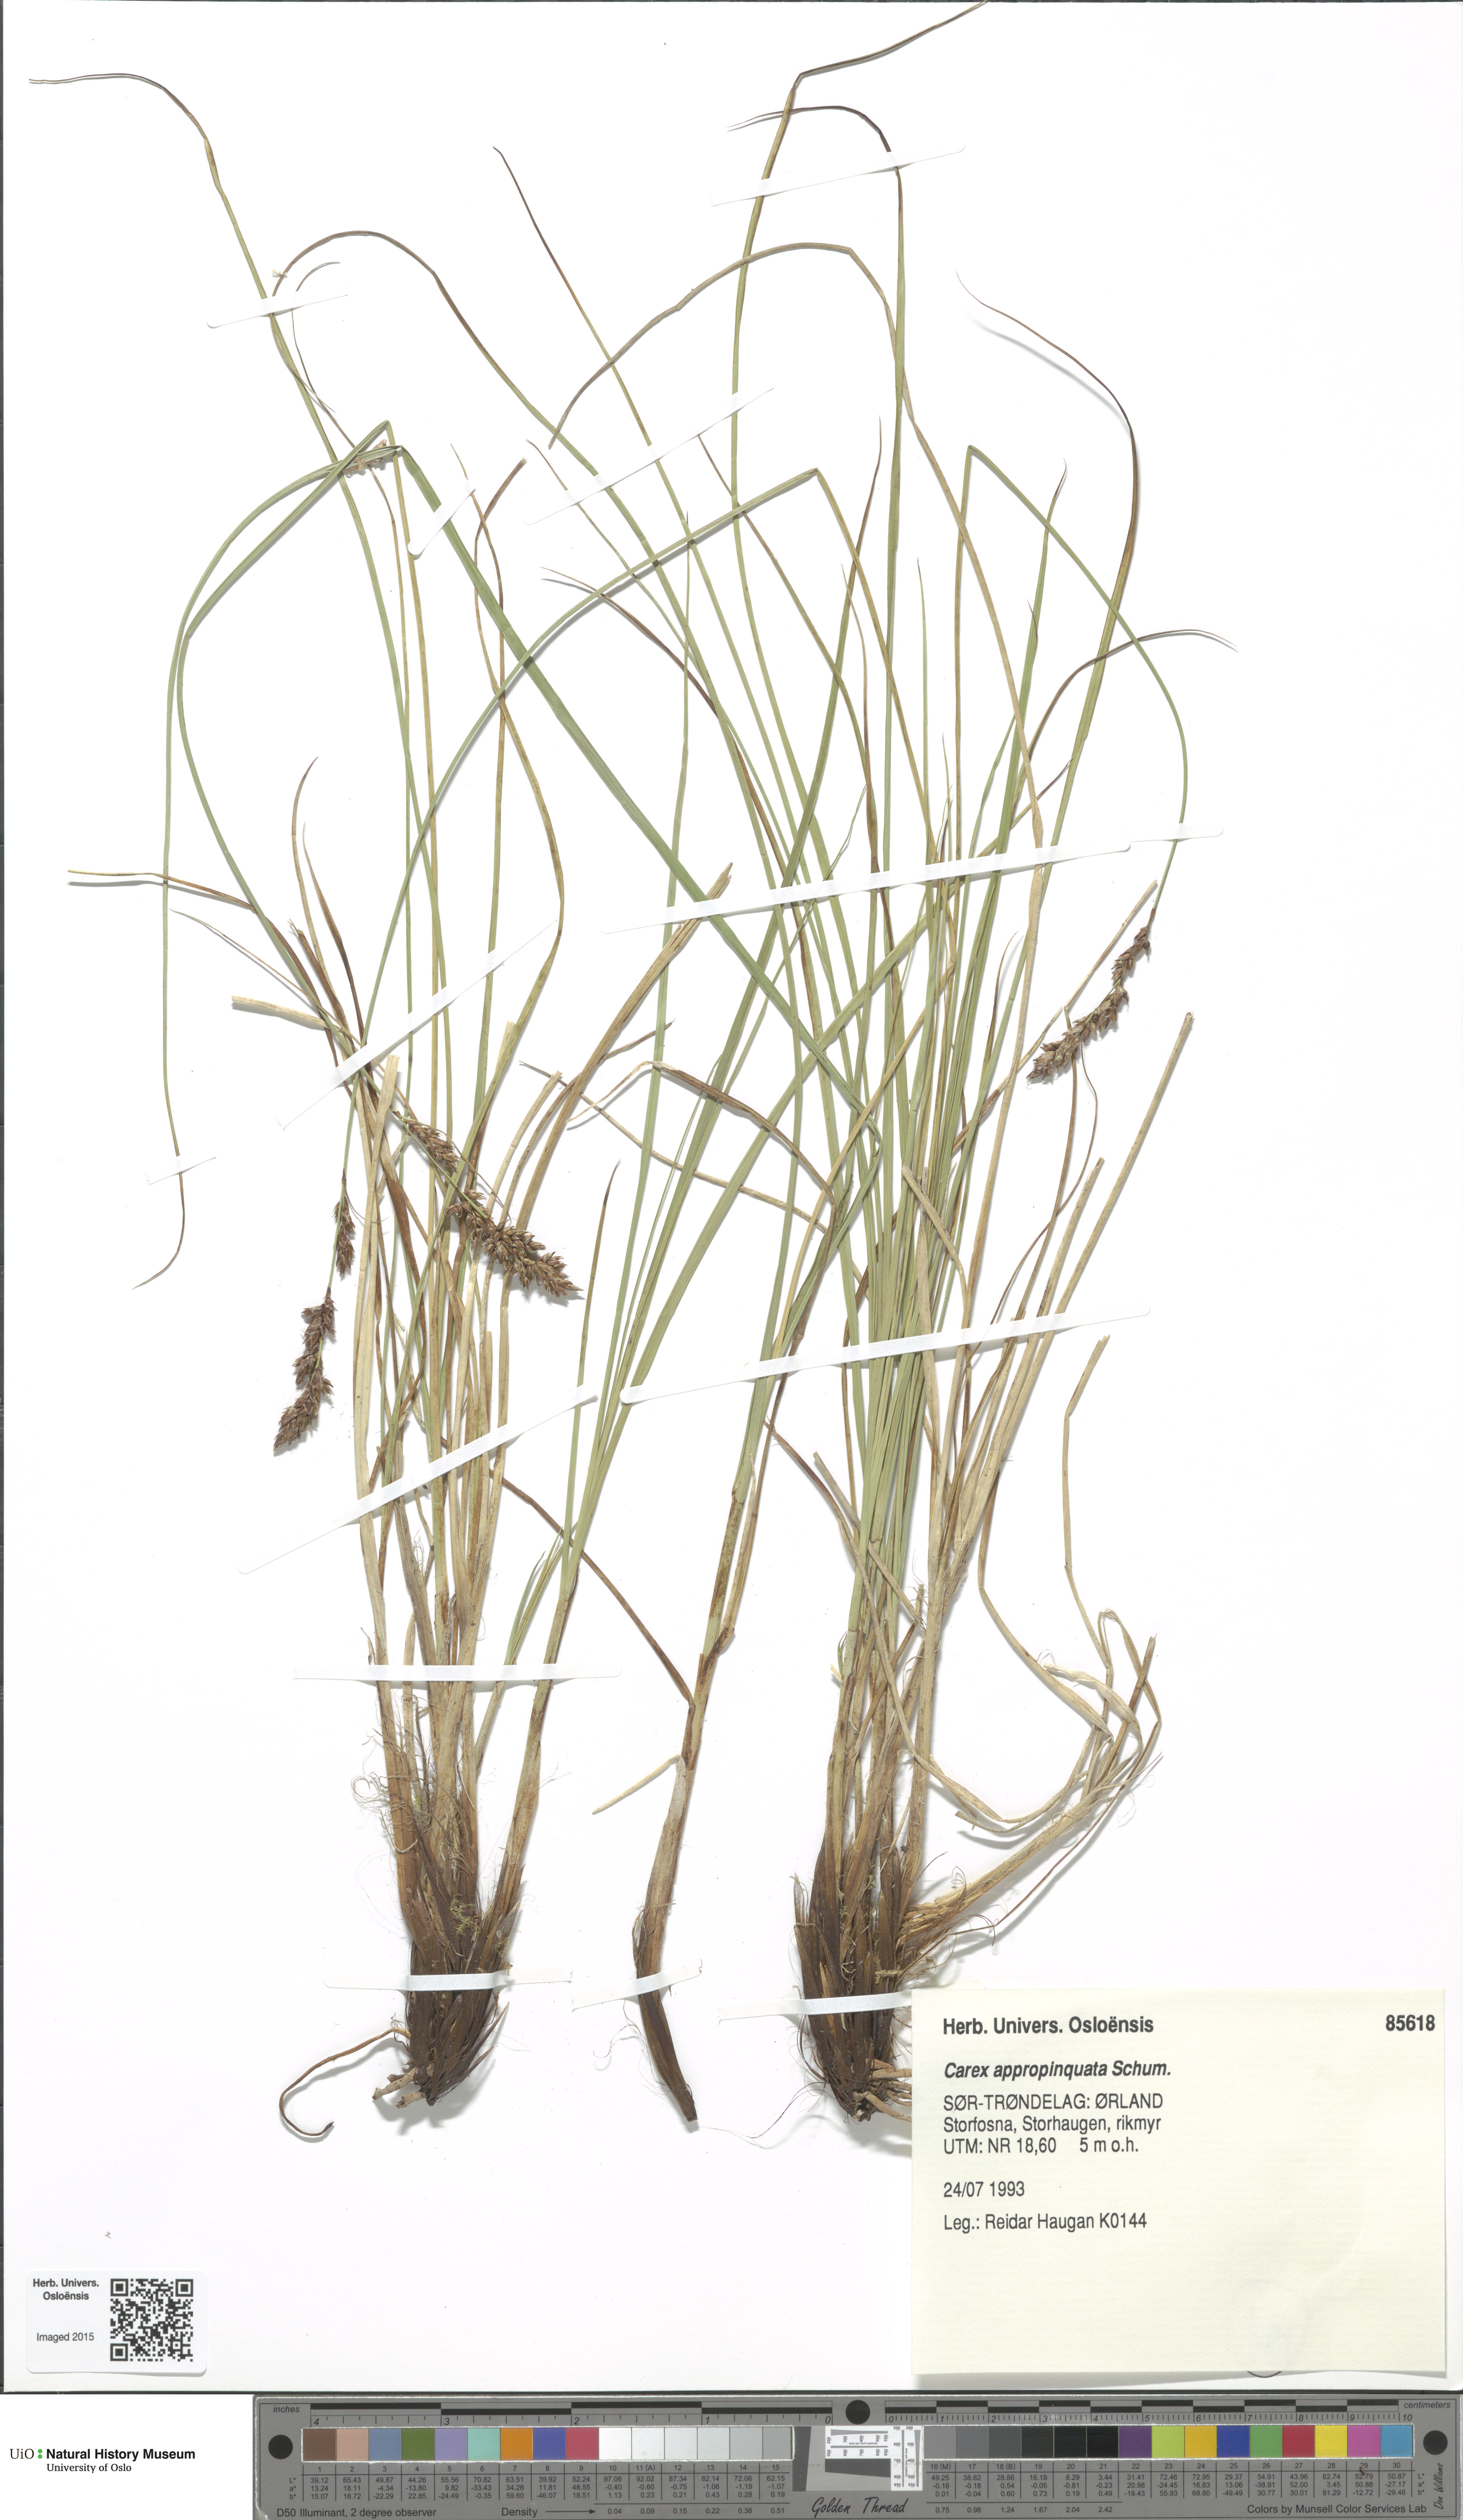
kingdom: Plantae
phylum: Tracheophyta
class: Liliopsida
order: Poales
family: Cyperaceae
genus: Carex
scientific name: Carex appropinquata
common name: Fibrous tussock-sedge
